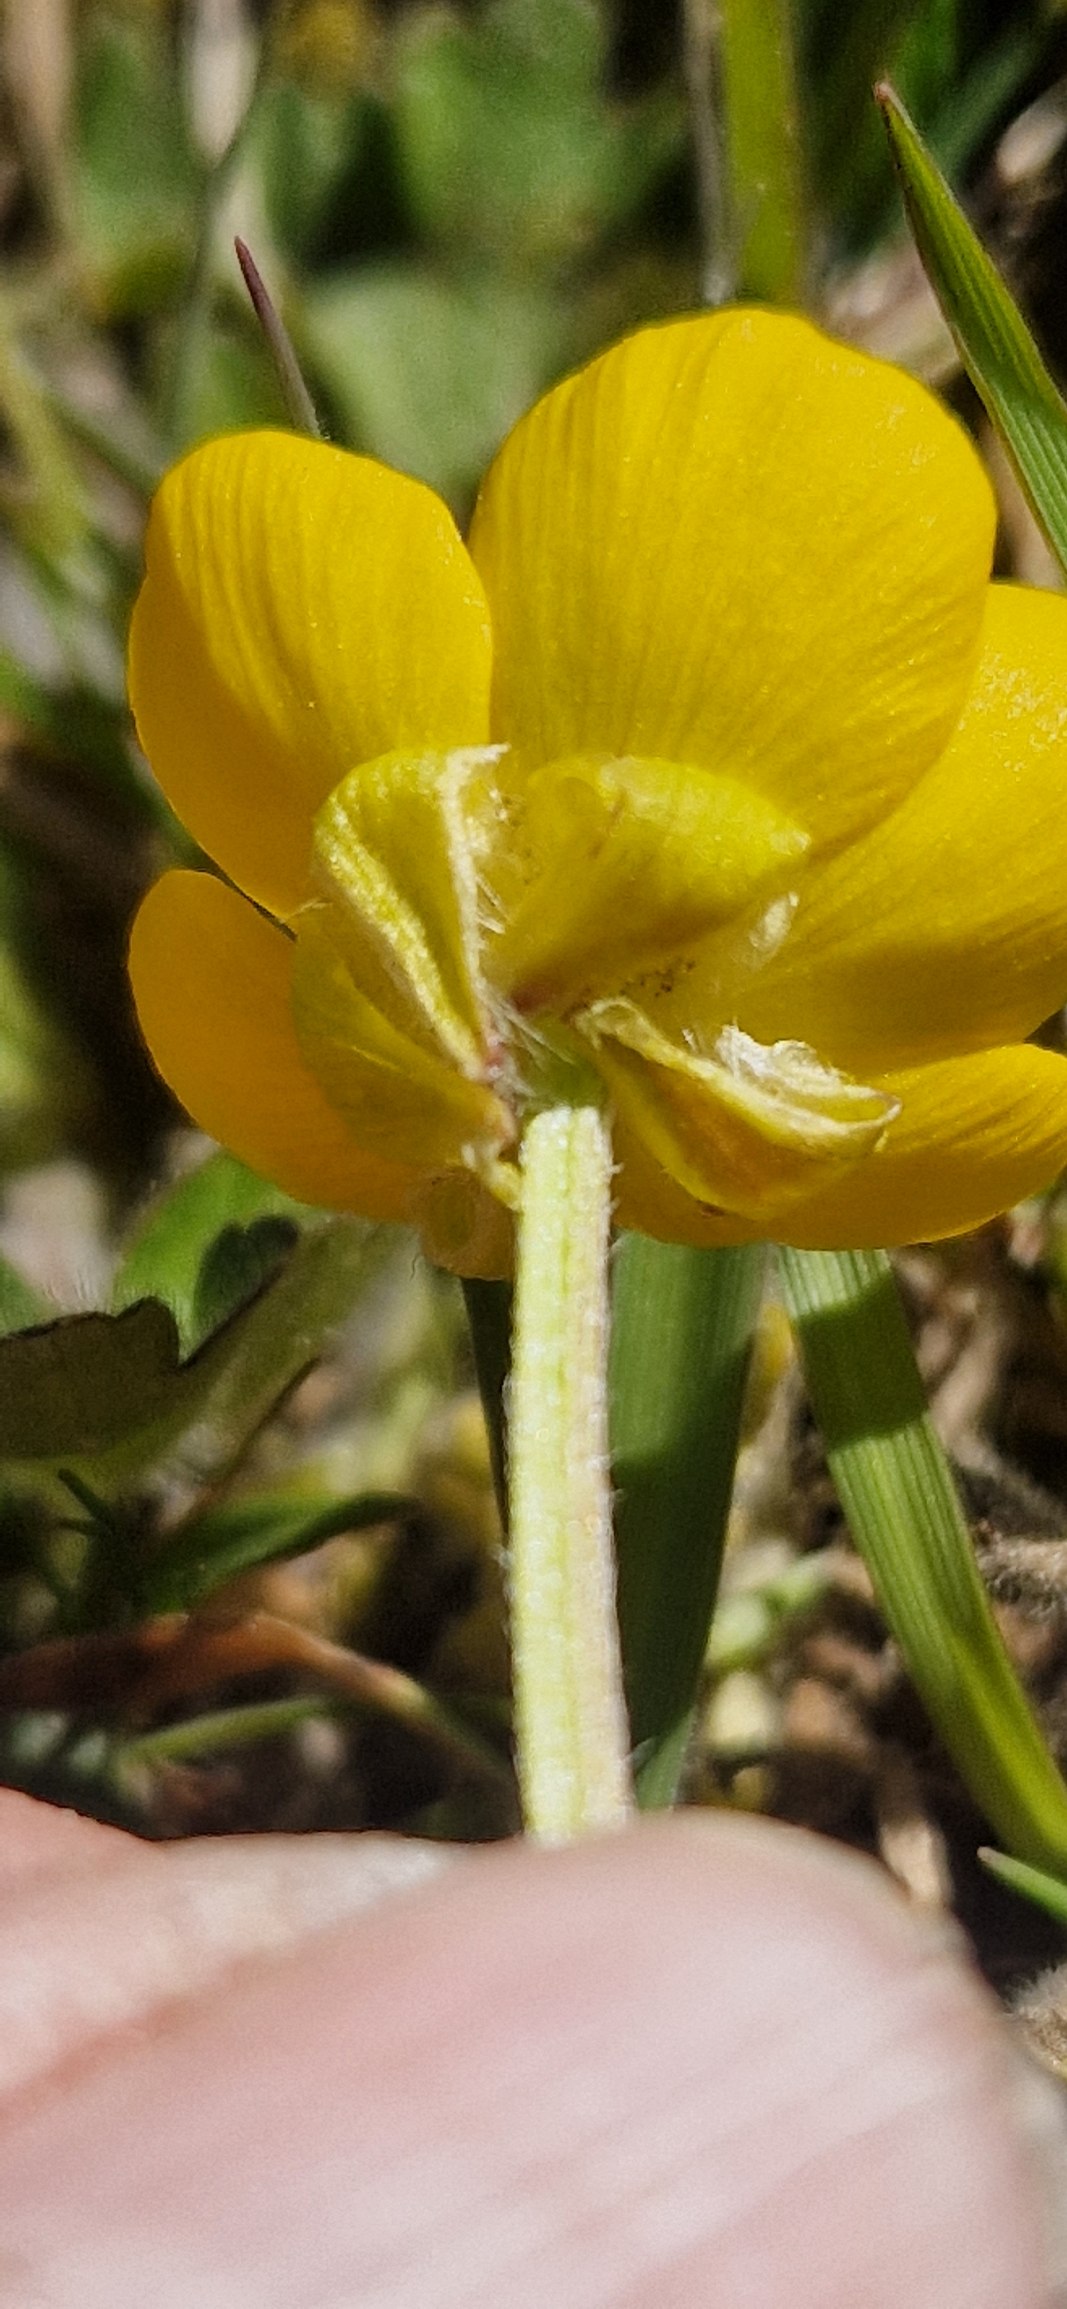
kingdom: Plantae
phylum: Tracheophyta
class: Magnoliopsida
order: Ranunculales
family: Ranunculaceae
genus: Ranunculus
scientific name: Ranunculus bulbosus
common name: Knold-ranunkel
